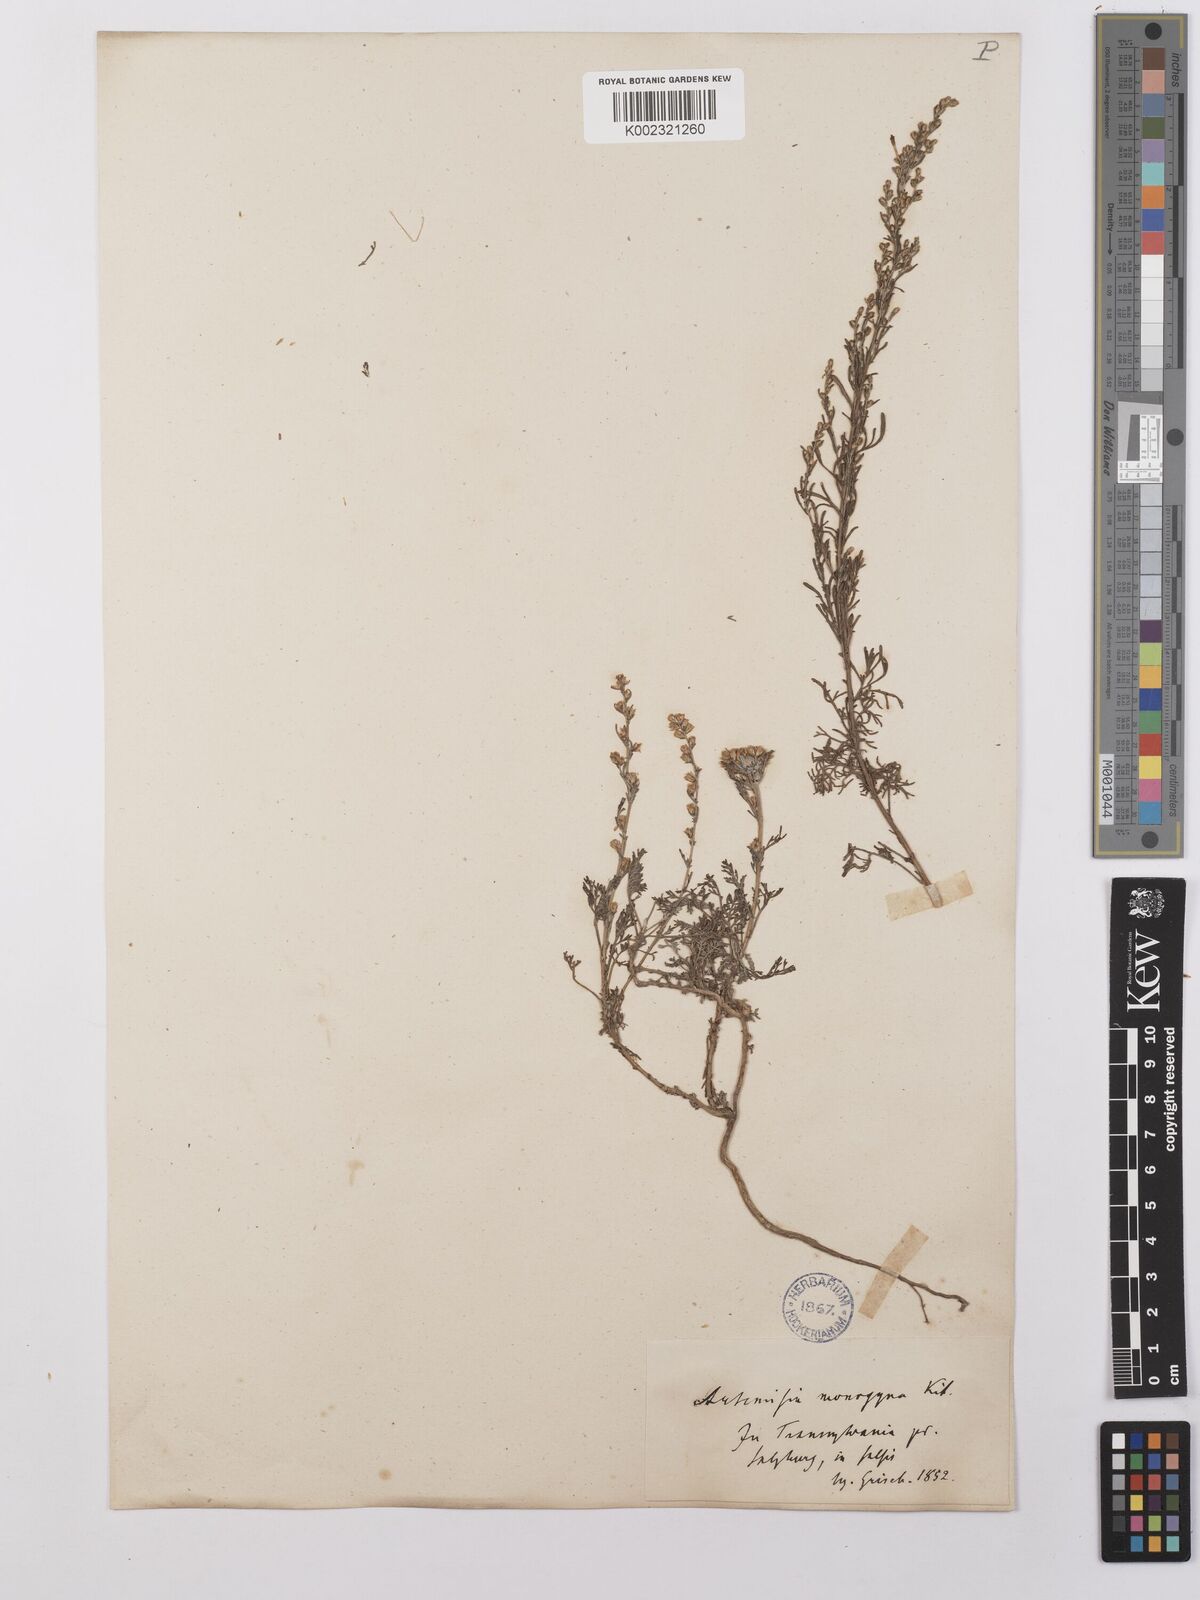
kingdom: Plantae
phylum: Tracheophyta
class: Magnoliopsida
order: Asterales
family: Asteraceae
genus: Artemisia
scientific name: Artemisia maritima
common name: Wormseed
